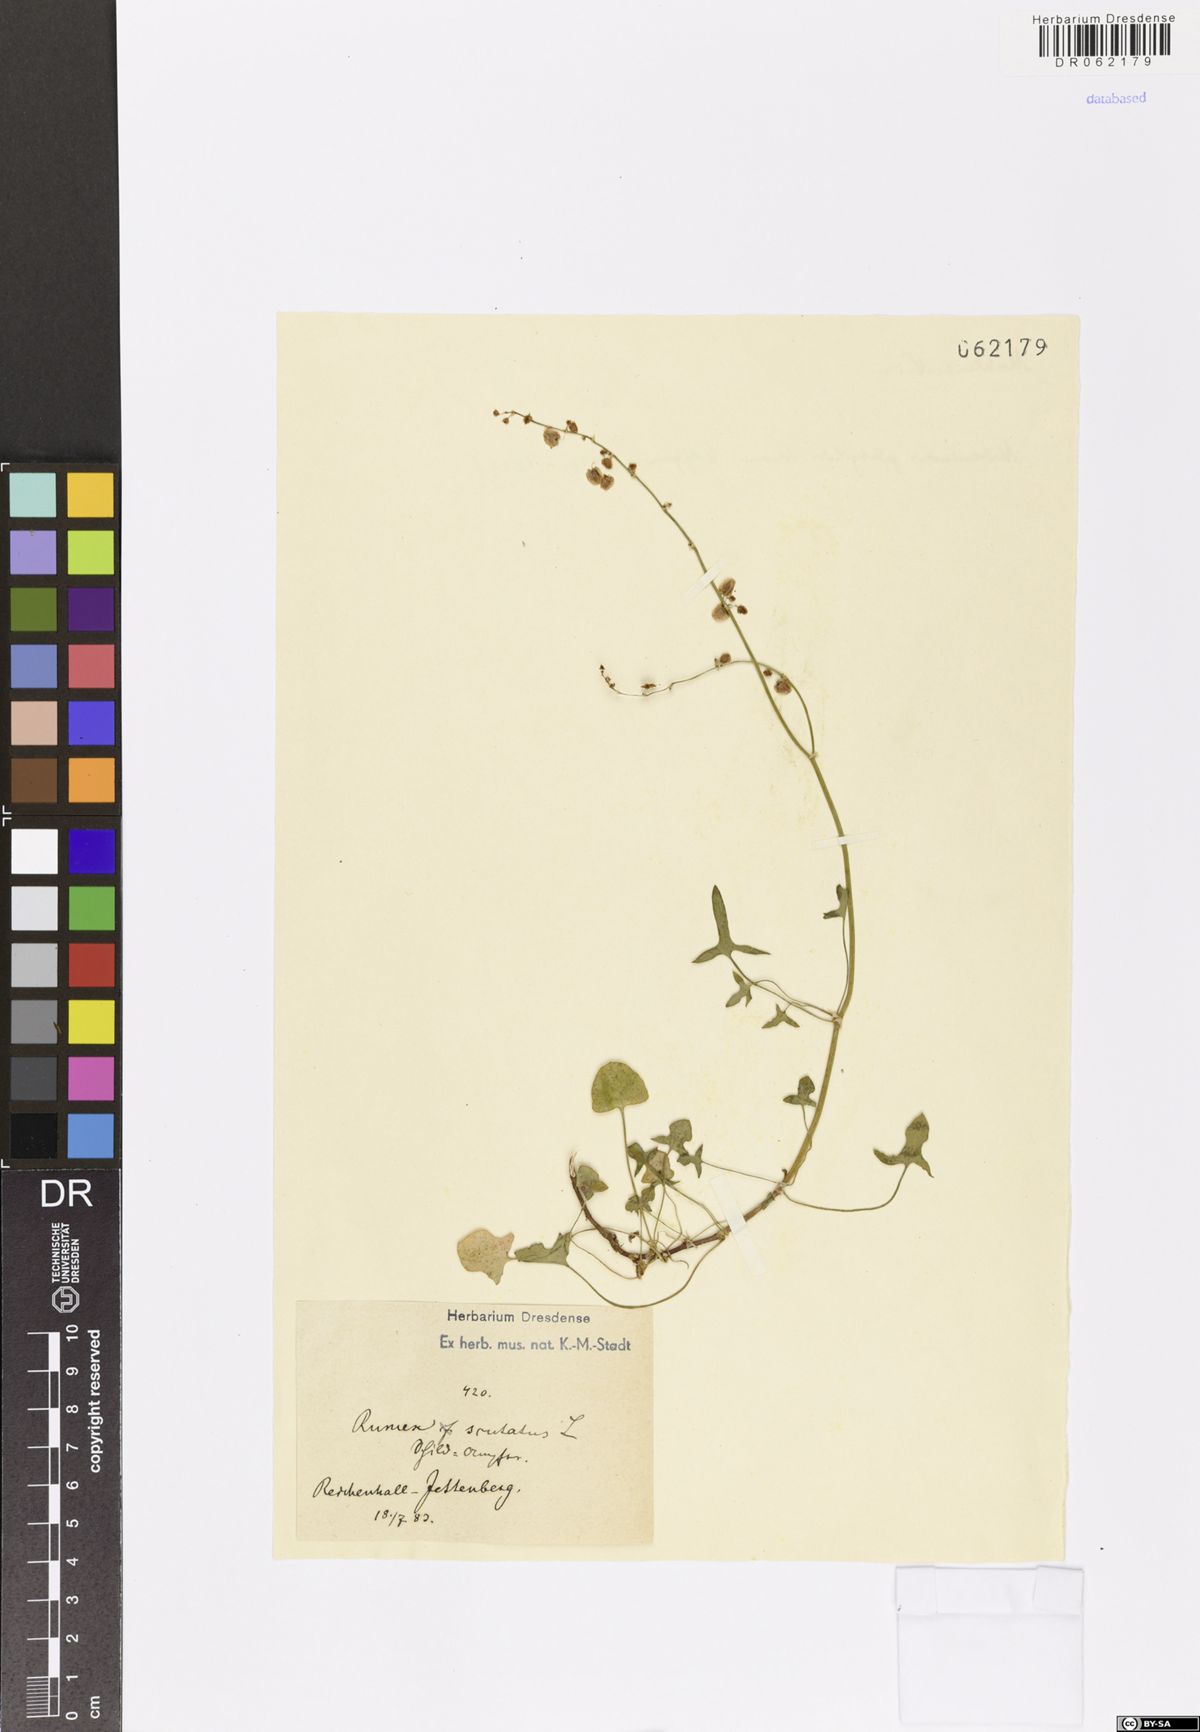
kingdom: Plantae
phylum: Tracheophyta
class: Magnoliopsida
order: Caryophyllales
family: Polygonaceae
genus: Rumex
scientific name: Rumex scutatus
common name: French sorrel
